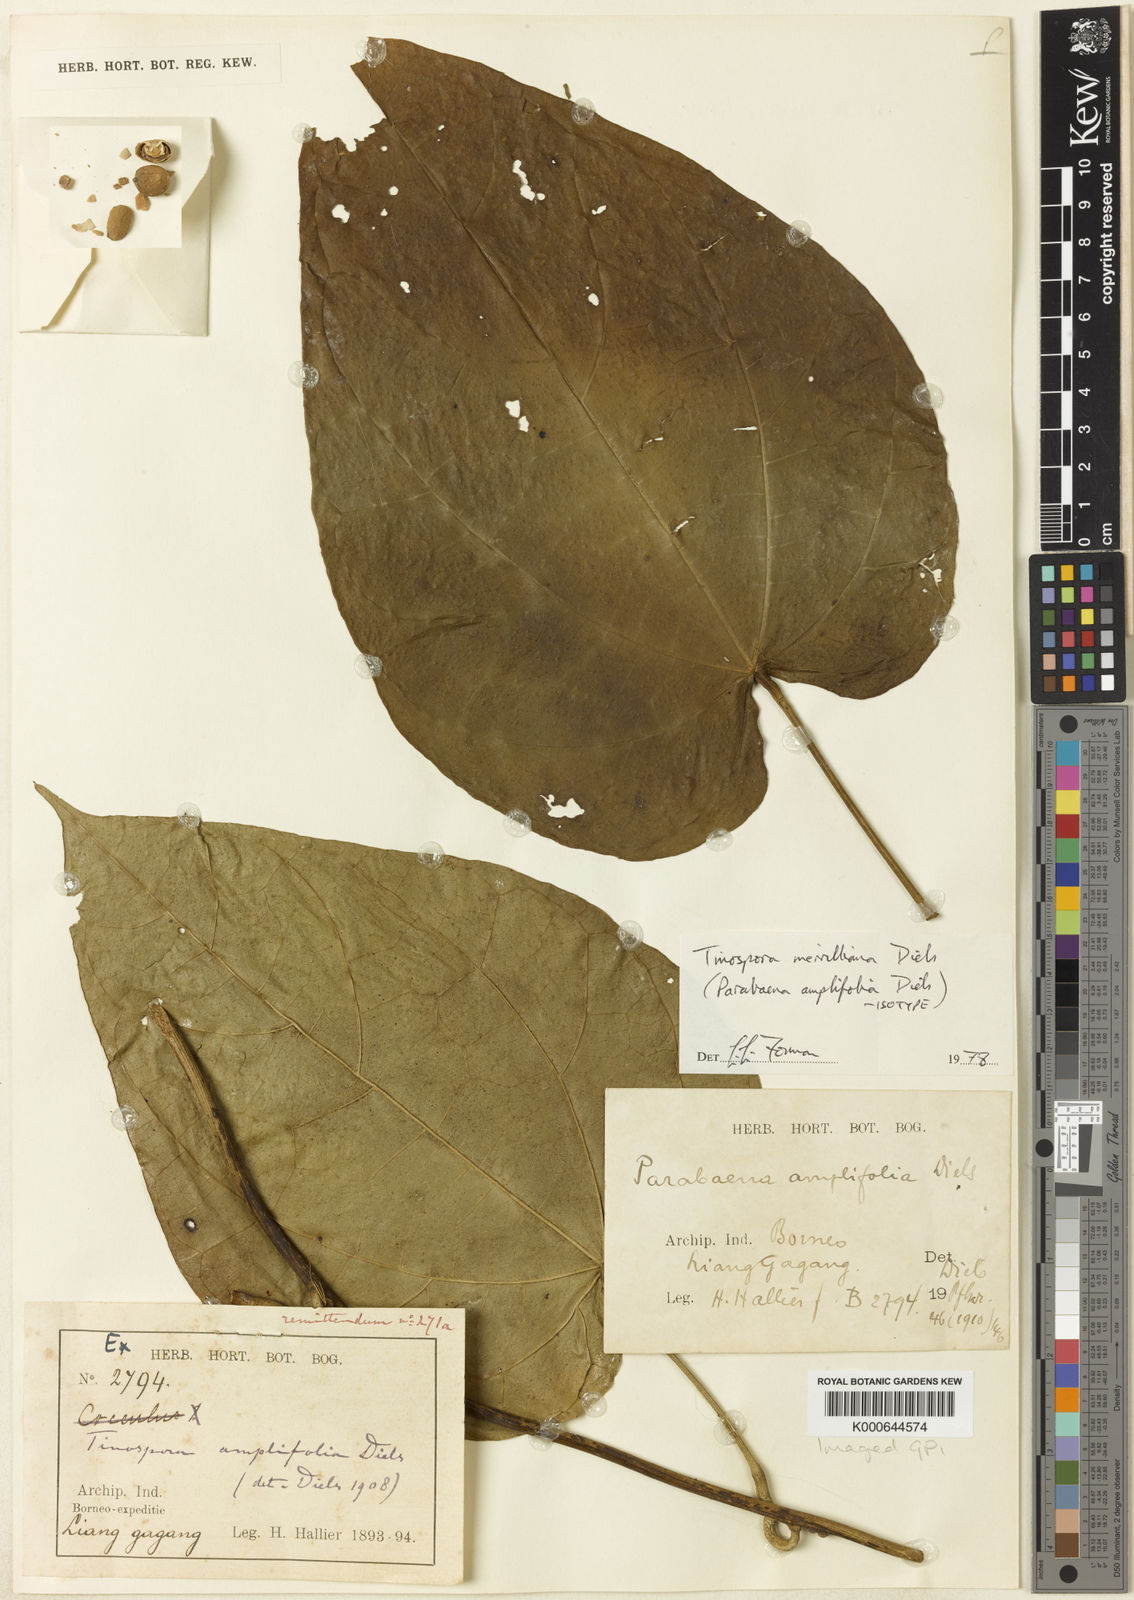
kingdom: Plantae
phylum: Tracheophyta
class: Magnoliopsida
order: Ranunculales
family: Menispermaceae
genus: Tinospora
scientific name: Tinospora merrilliana
